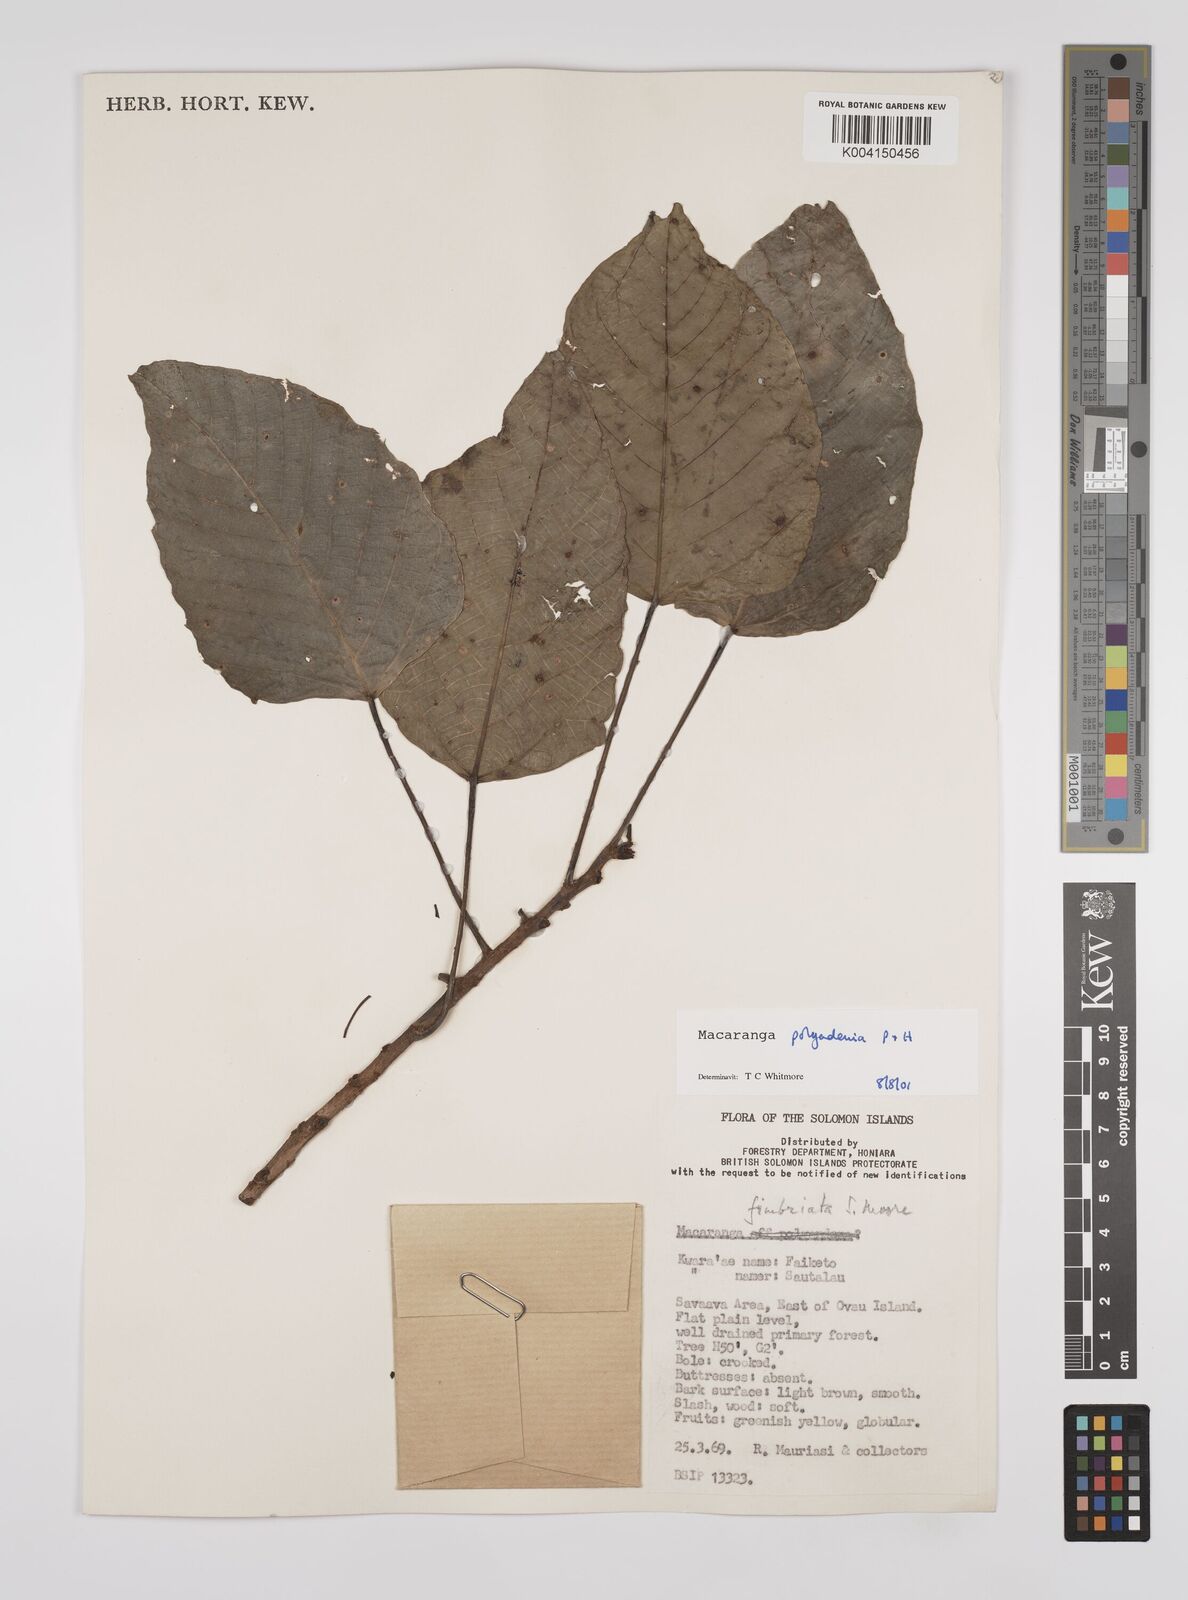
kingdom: Plantae
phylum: Tracheophyta
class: Magnoliopsida
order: Malpighiales
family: Euphorbiaceae
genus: Macaranga
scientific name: Macaranga polyadenia
